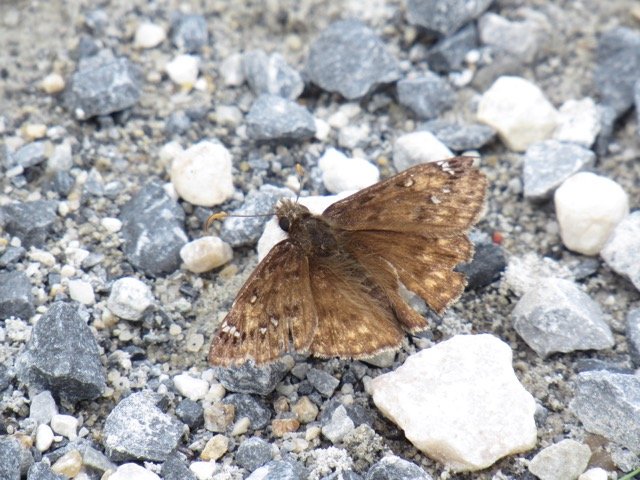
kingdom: Animalia
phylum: Arthropoda
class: Insecta
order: Lepidoptera
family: Hesperiidae
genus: Gesta
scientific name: Gesta
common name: Juvenal's Duskywing
